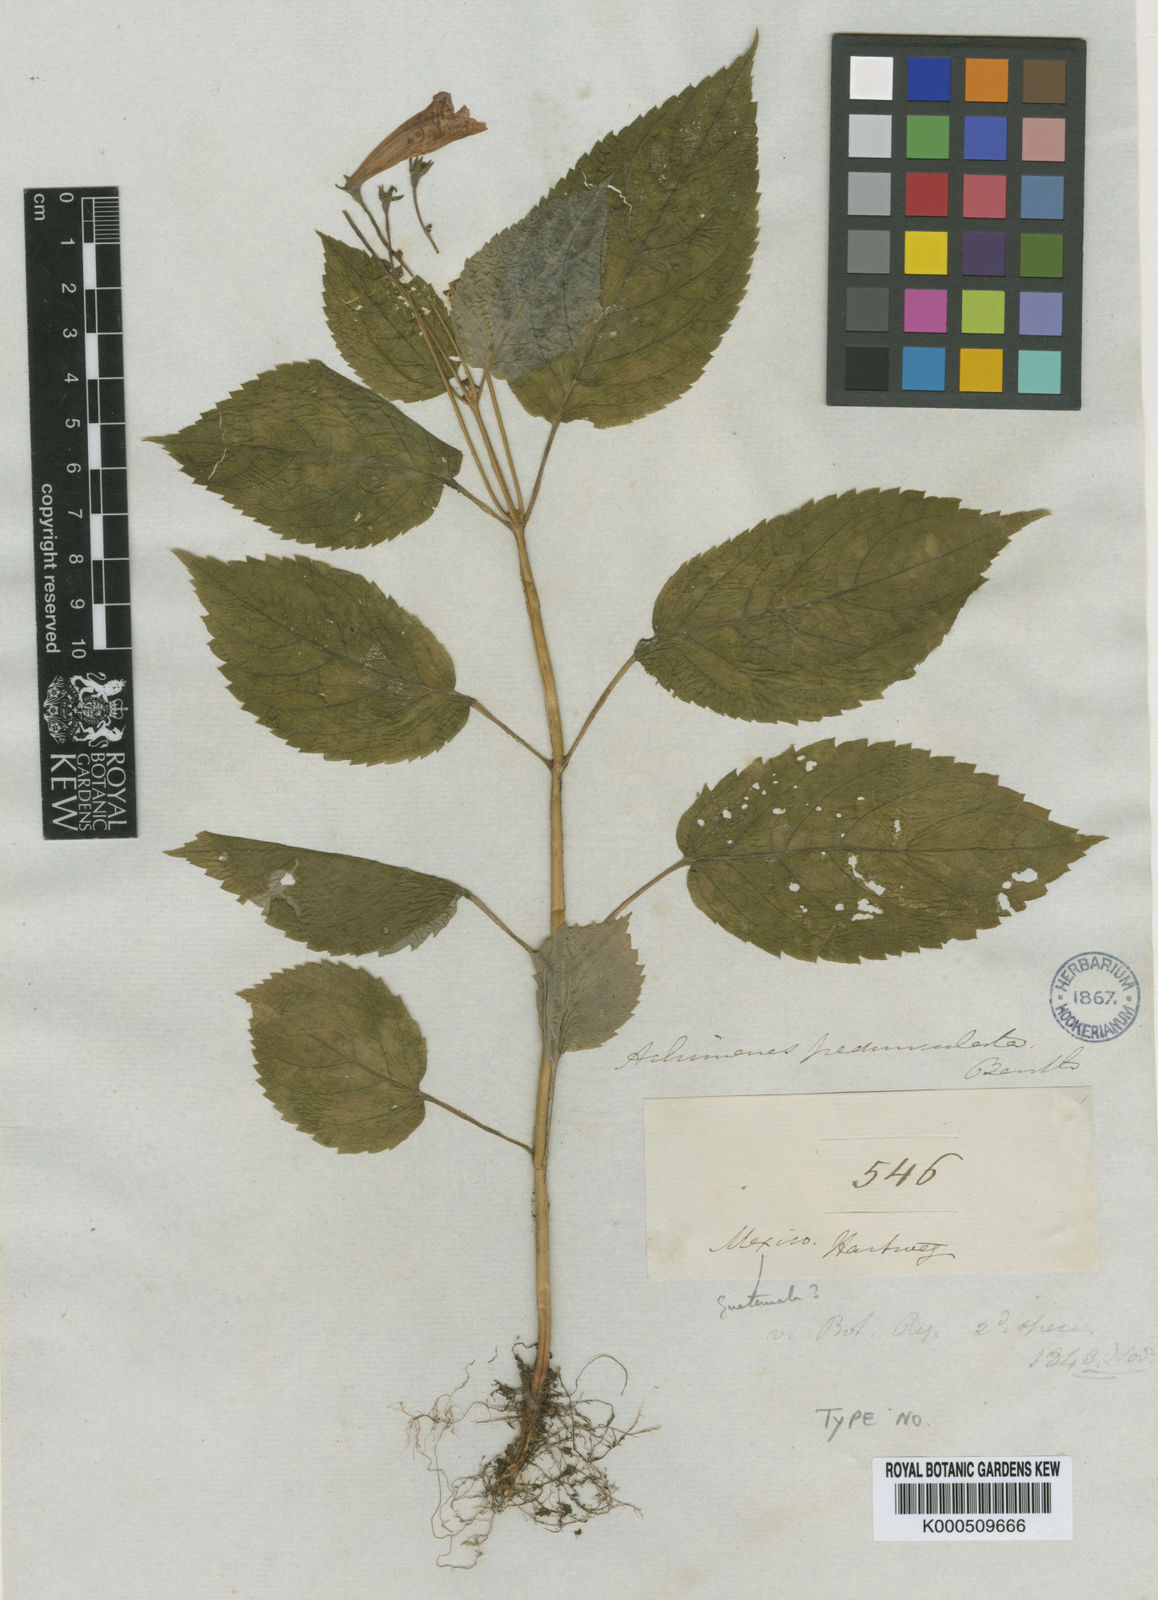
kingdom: Plantae
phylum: Tracheophyta
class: Magnoliopsida
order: Lamiales
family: Gesneriaceae
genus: Achimenes
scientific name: Achimenes pedunculata
